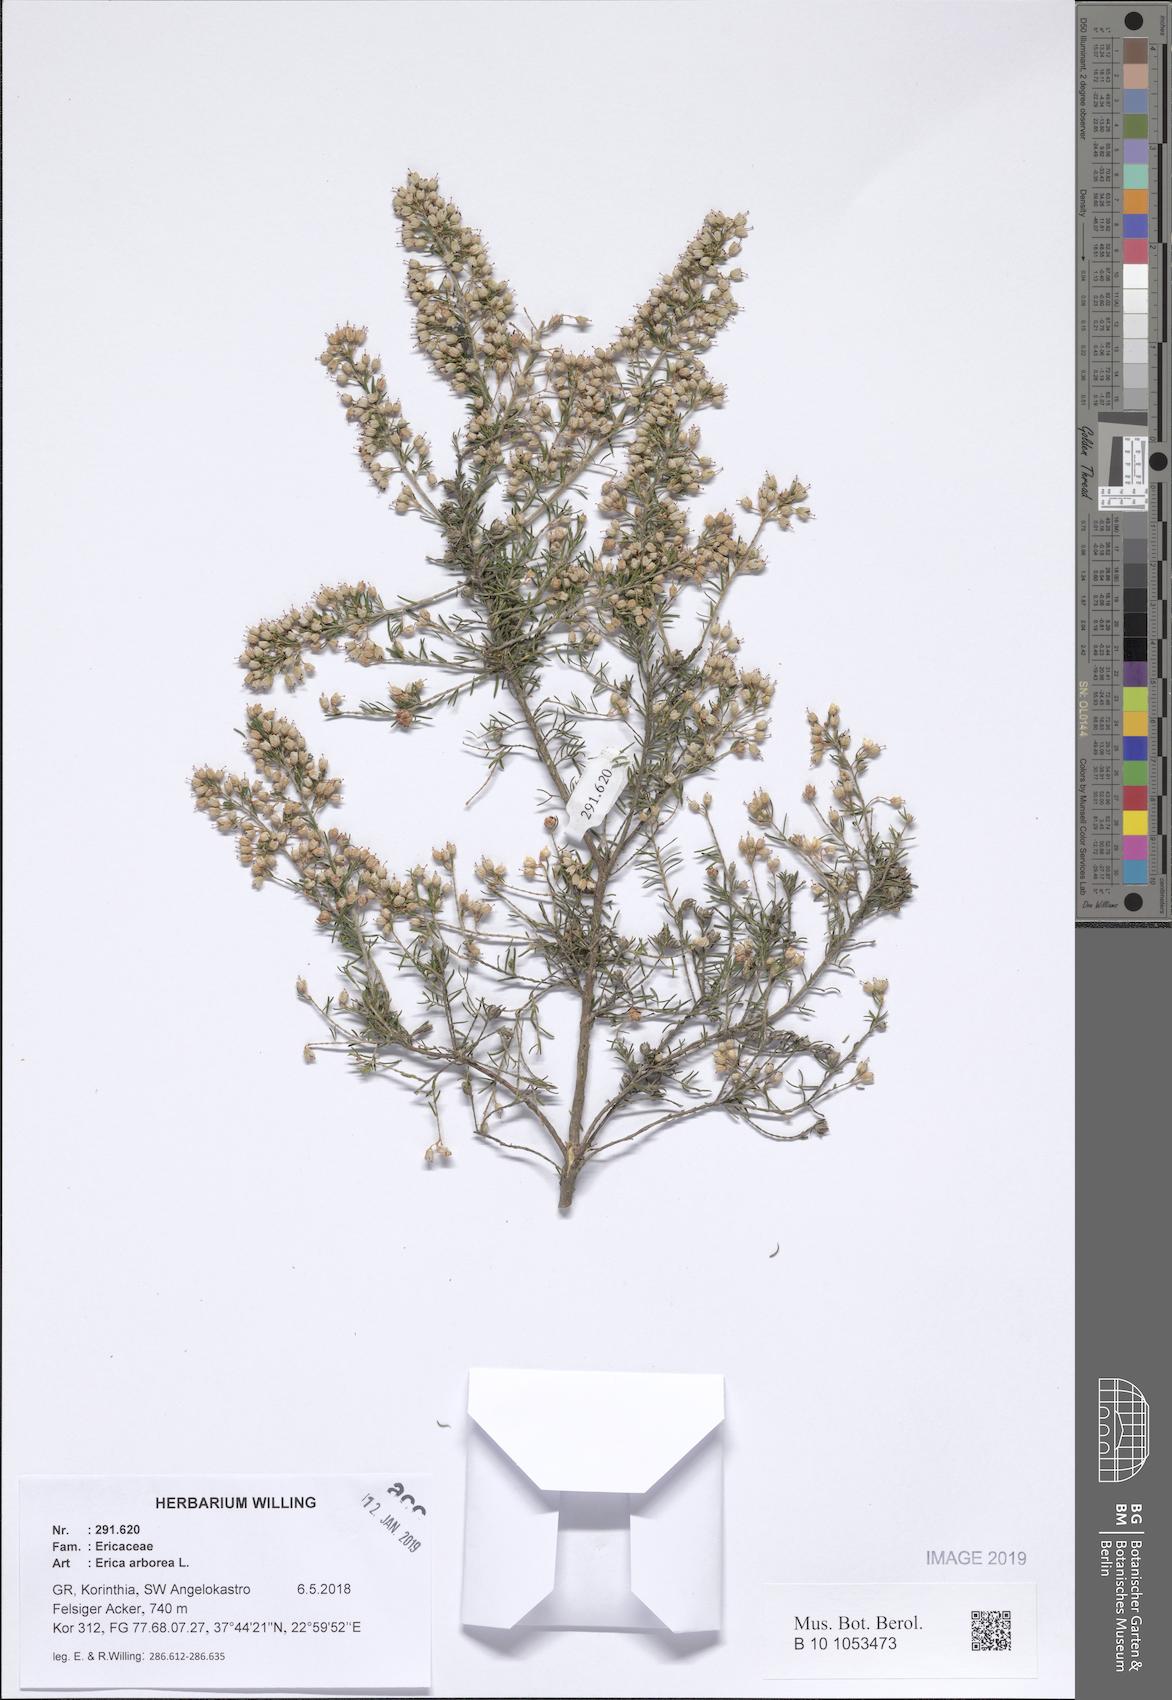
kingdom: Plantae
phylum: Tracheophyta
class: Magnoliopsida
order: Ericales
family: Ericaceae
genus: Erica
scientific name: Erica arborea
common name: Tree heath
